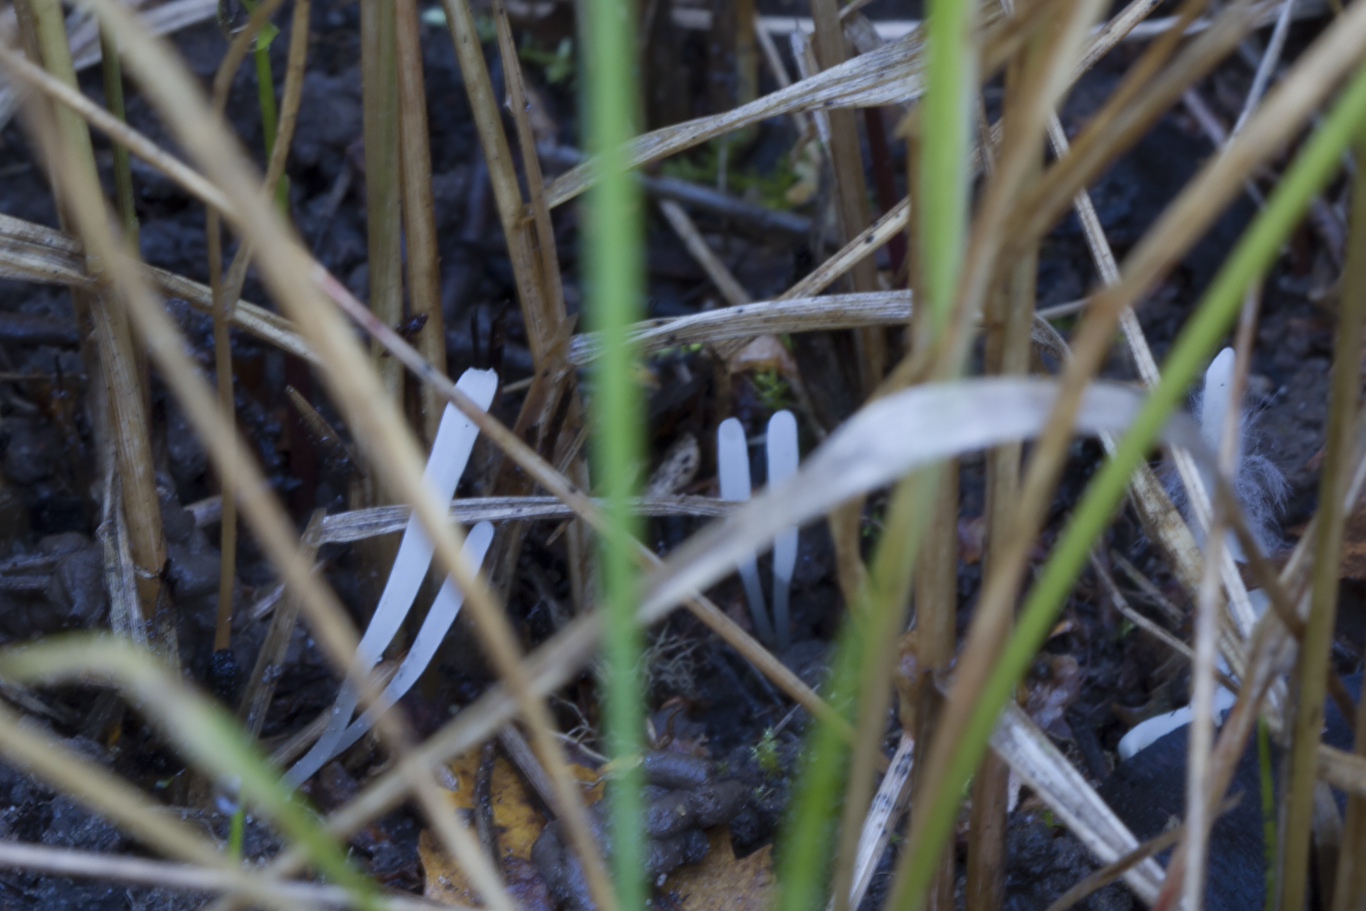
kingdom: Fungi
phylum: Basidiomycota
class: Agaricomycetes
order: Agaricales
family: Clavariaceae
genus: Clavaria
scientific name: Clavaria falcata
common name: hvid køllesvamp
